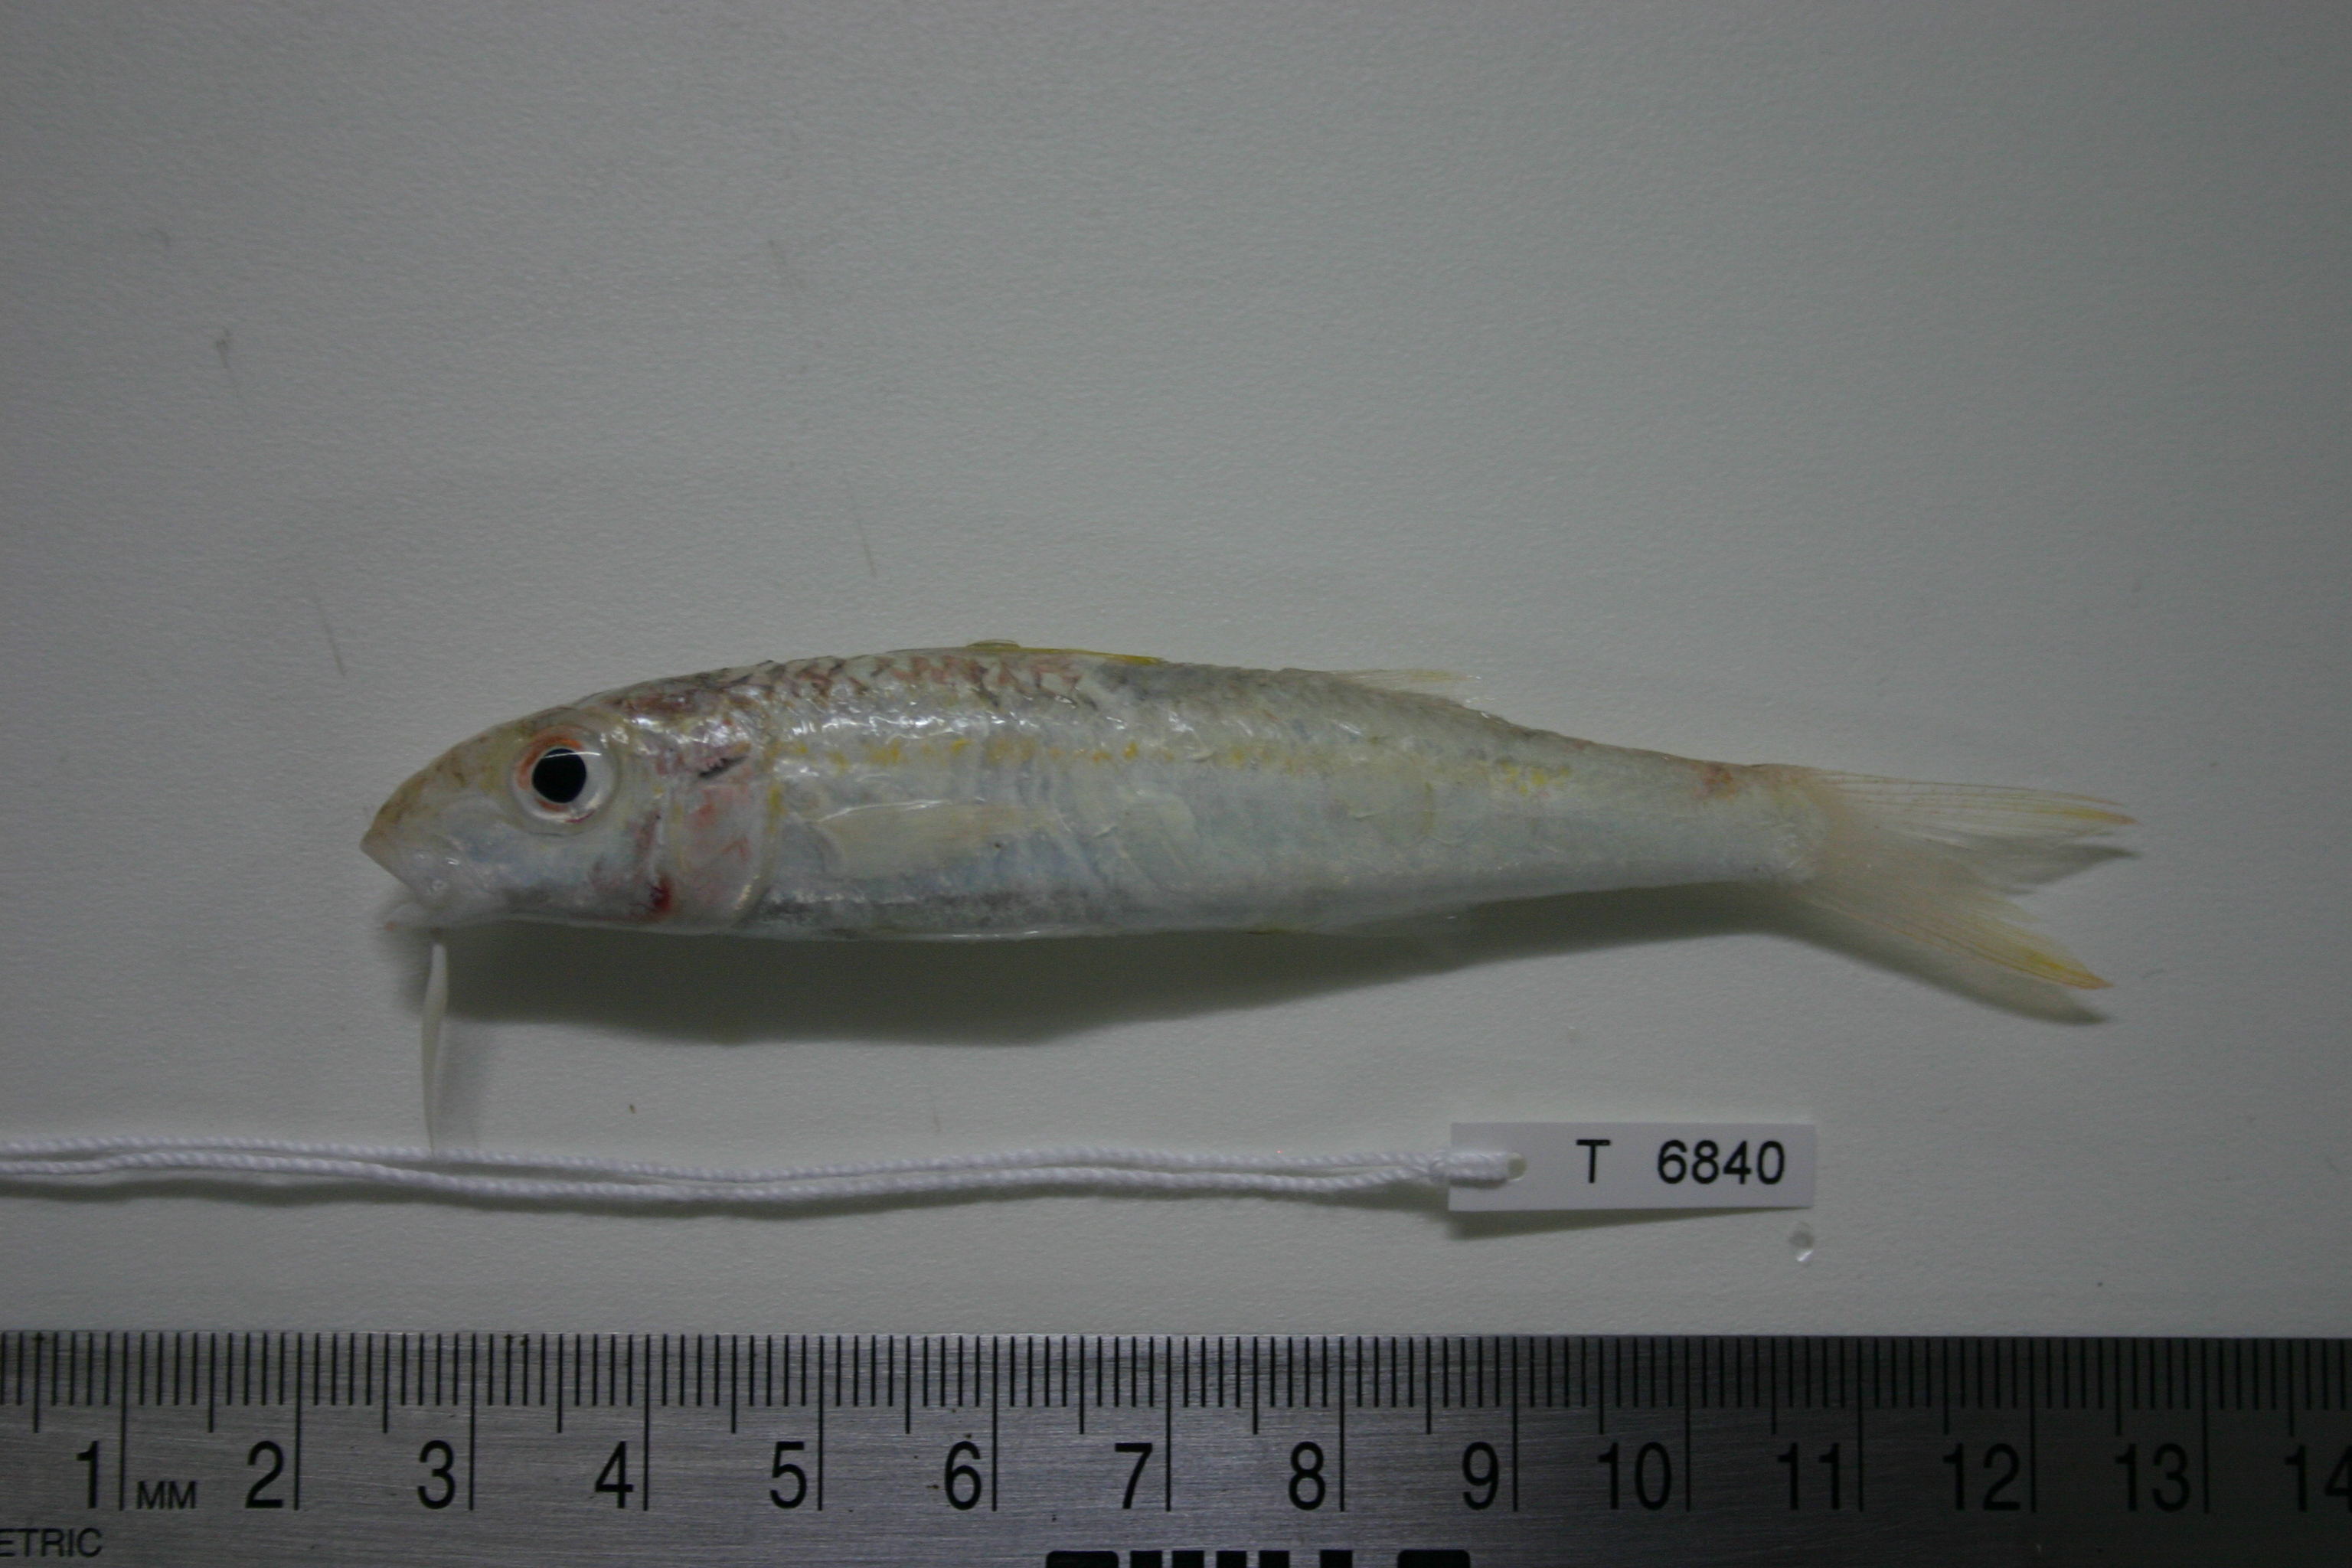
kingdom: Animalia
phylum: Chordata
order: Perciformes
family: Mullidae
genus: Mulloidichthys
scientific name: Mulloidichthys flavolineatus
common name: Yellowstripe goatfish
